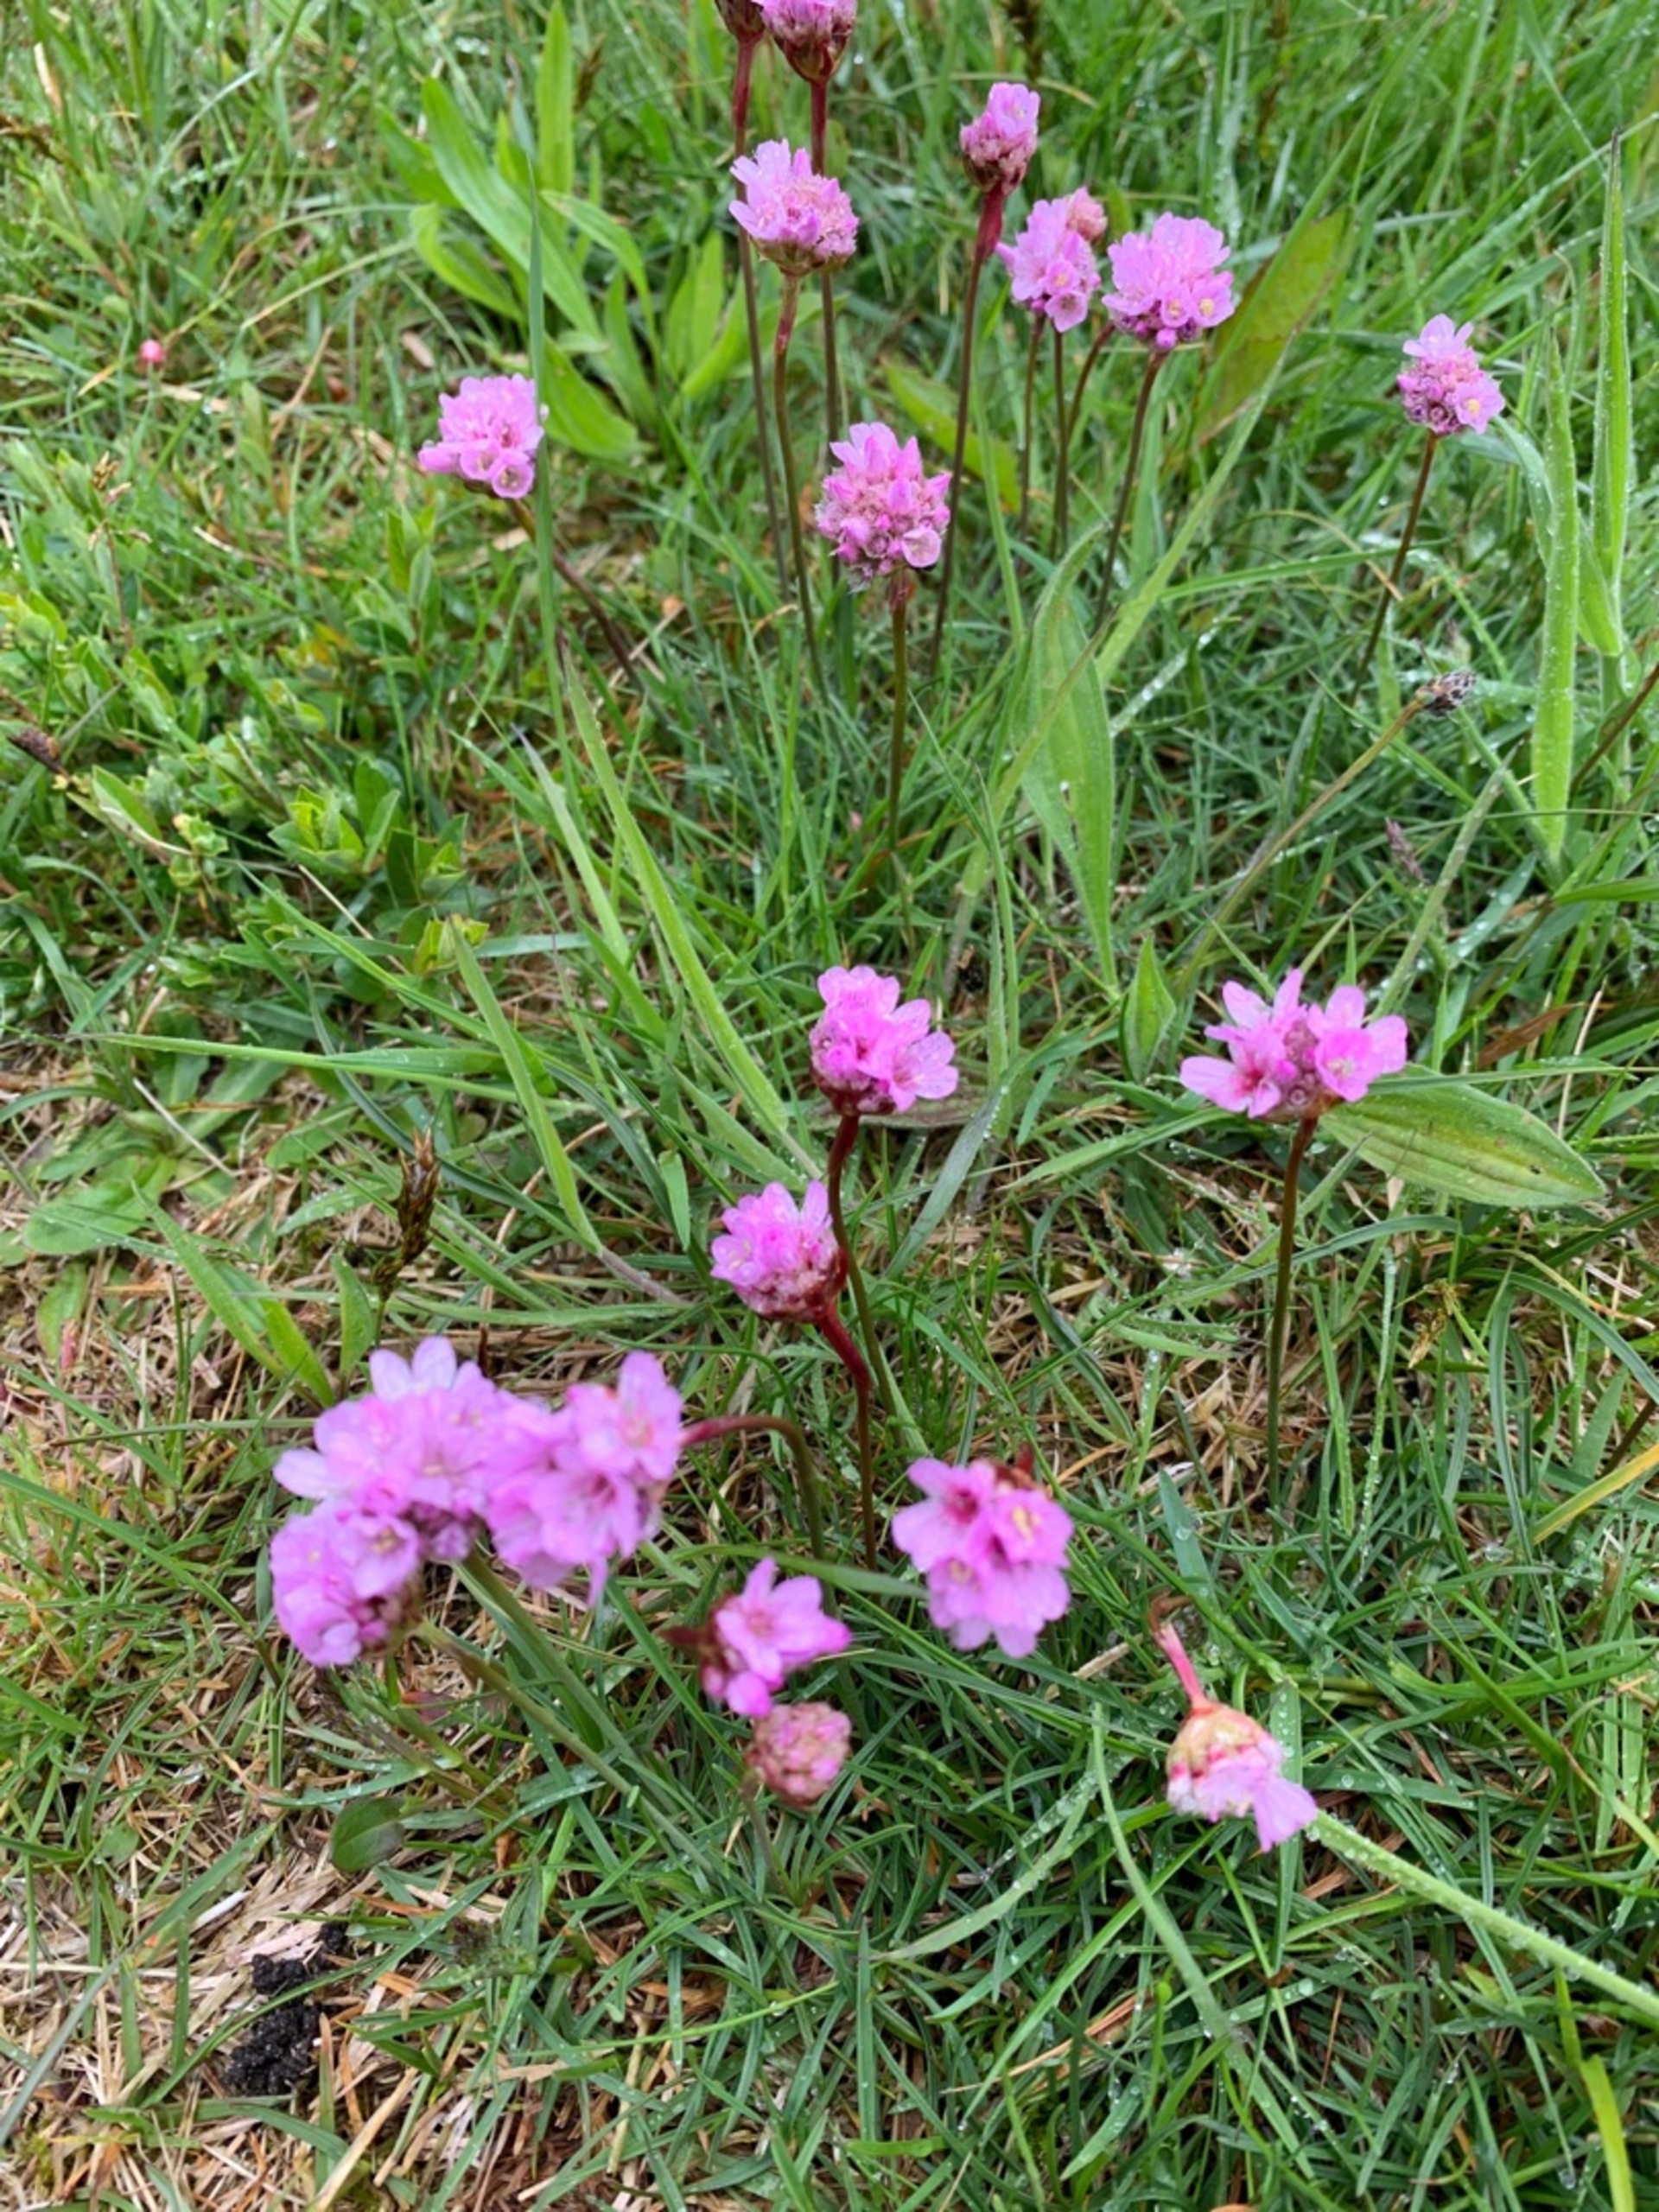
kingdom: Plantae
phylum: Tracheophyta
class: Magnoliopsida
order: Caryophyllales
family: Plumbaginaceae
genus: Armeria
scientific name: Armeria maritima
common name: Engelskgræs
